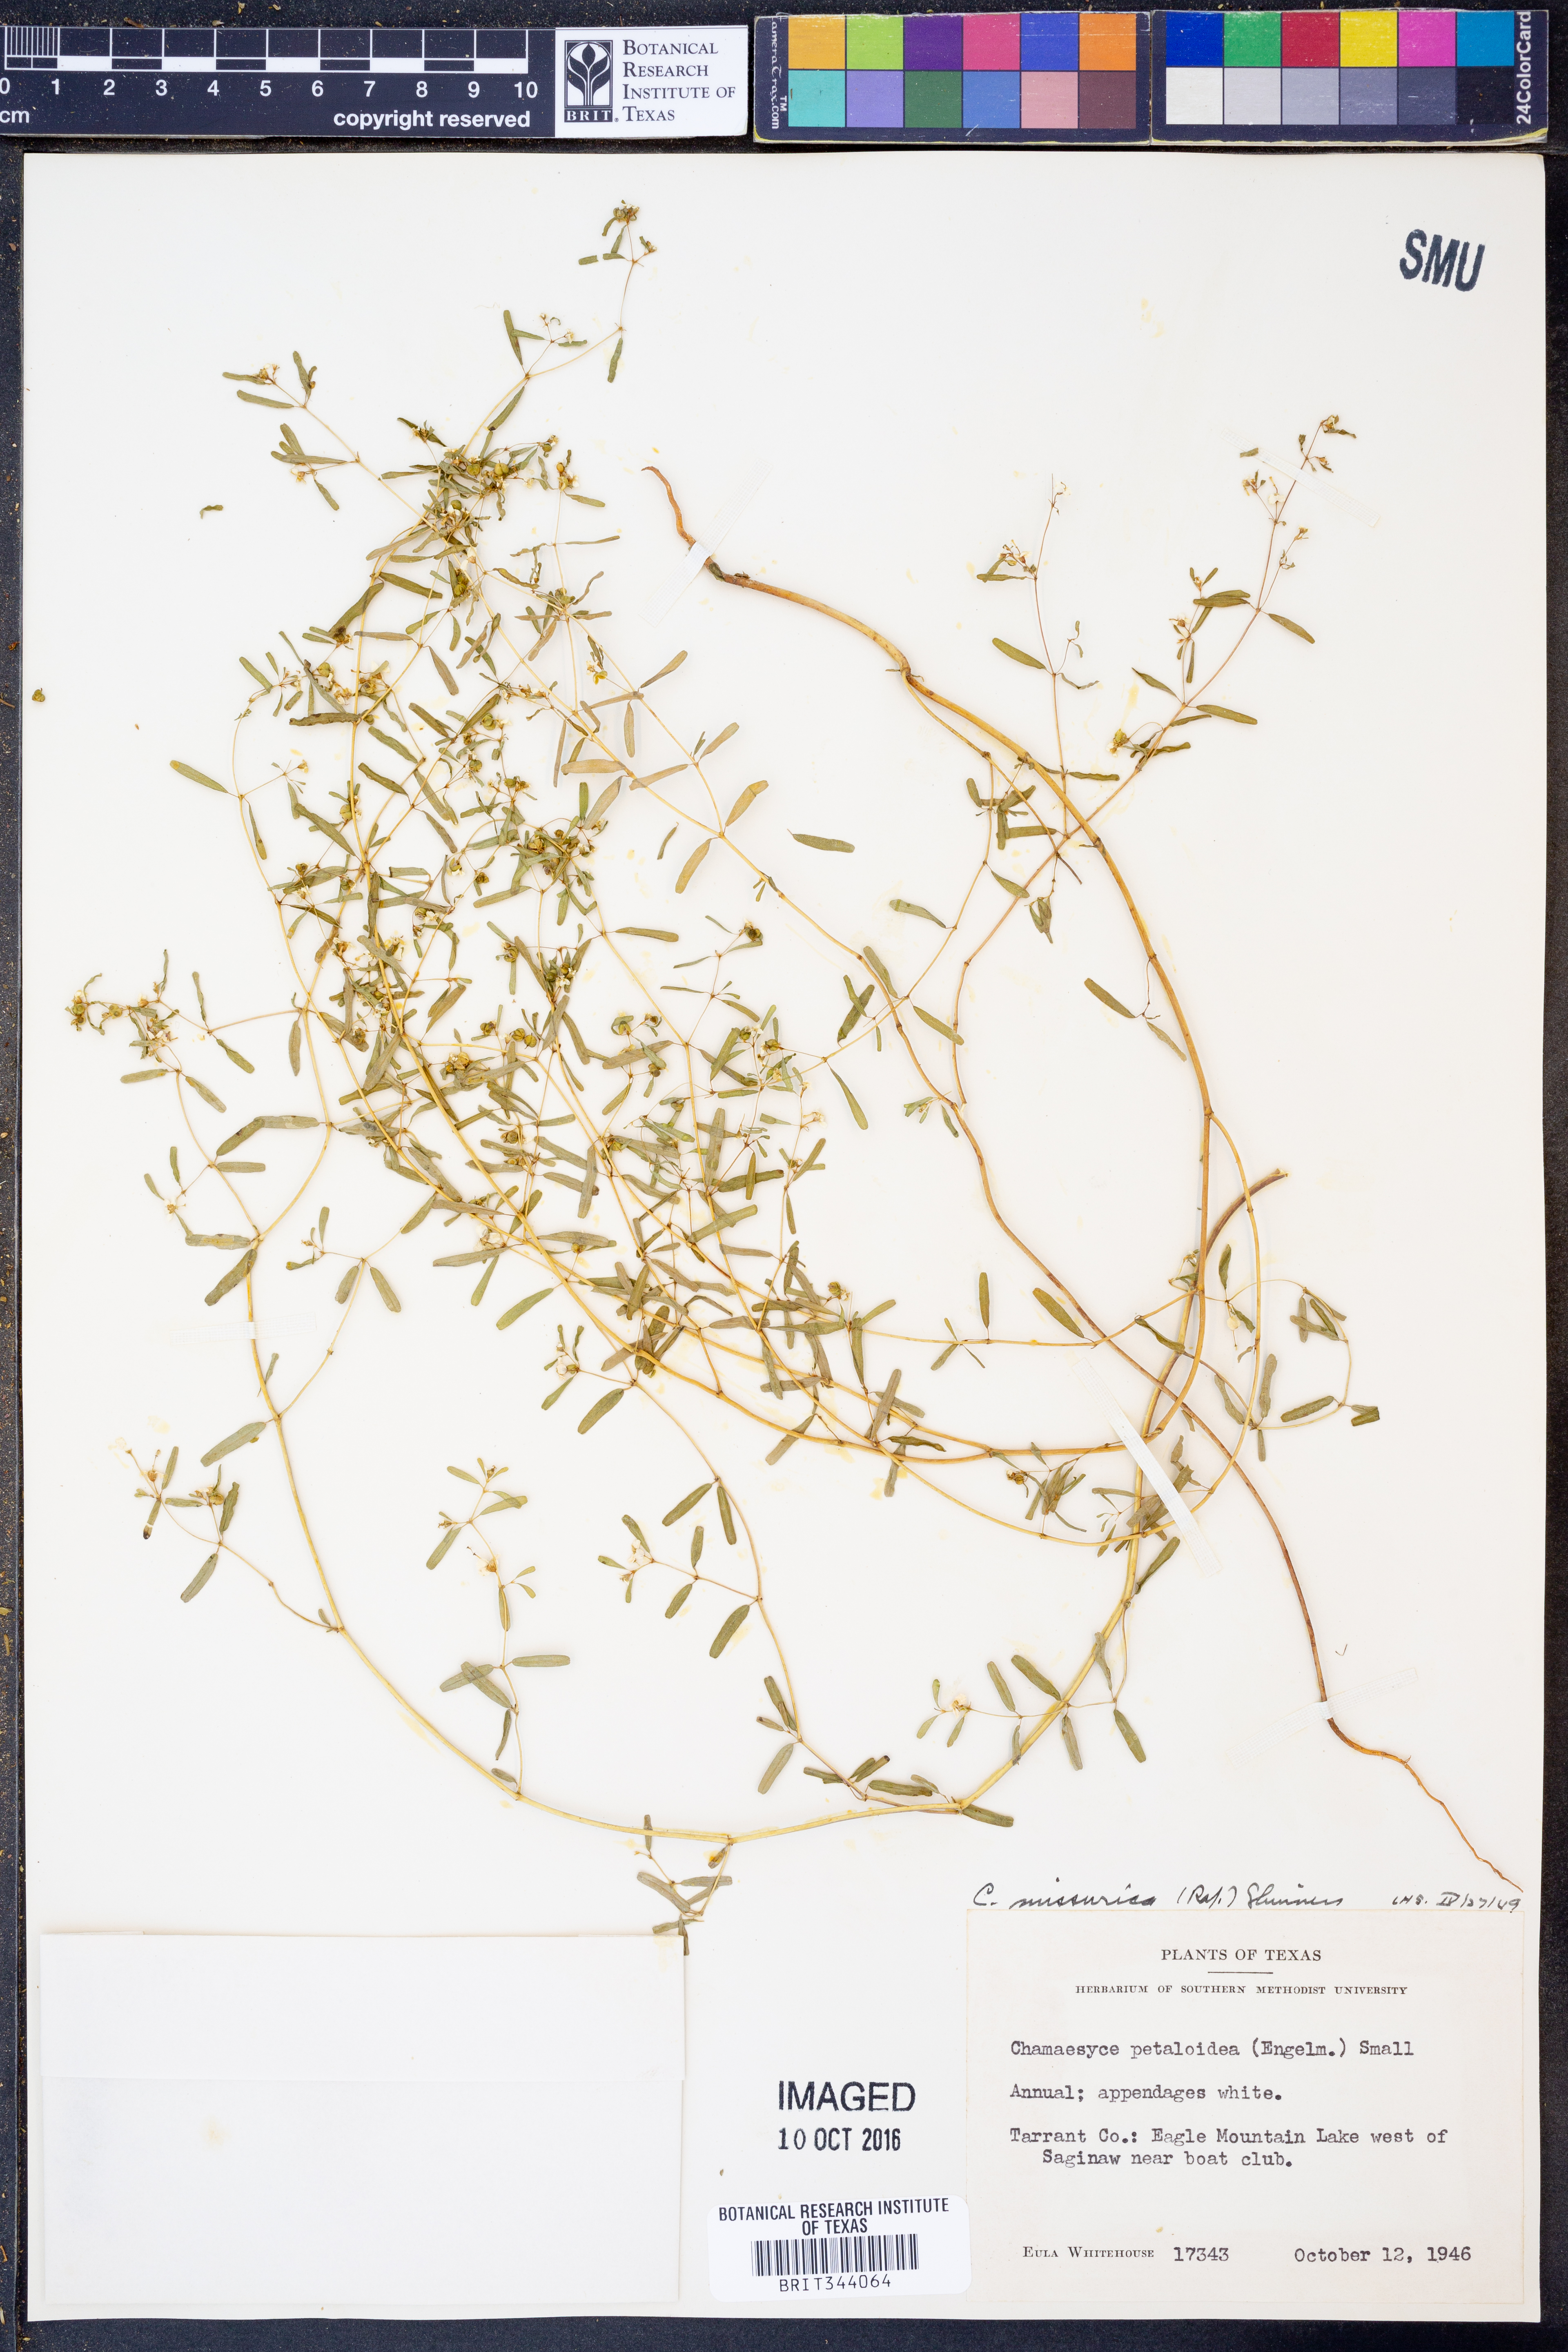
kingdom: Plantae
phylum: Tracheophyta
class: Magnoliopsida
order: Malpighiales
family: Euphorbiaceae
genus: Euphorbia
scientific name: Euphorbia missurica
